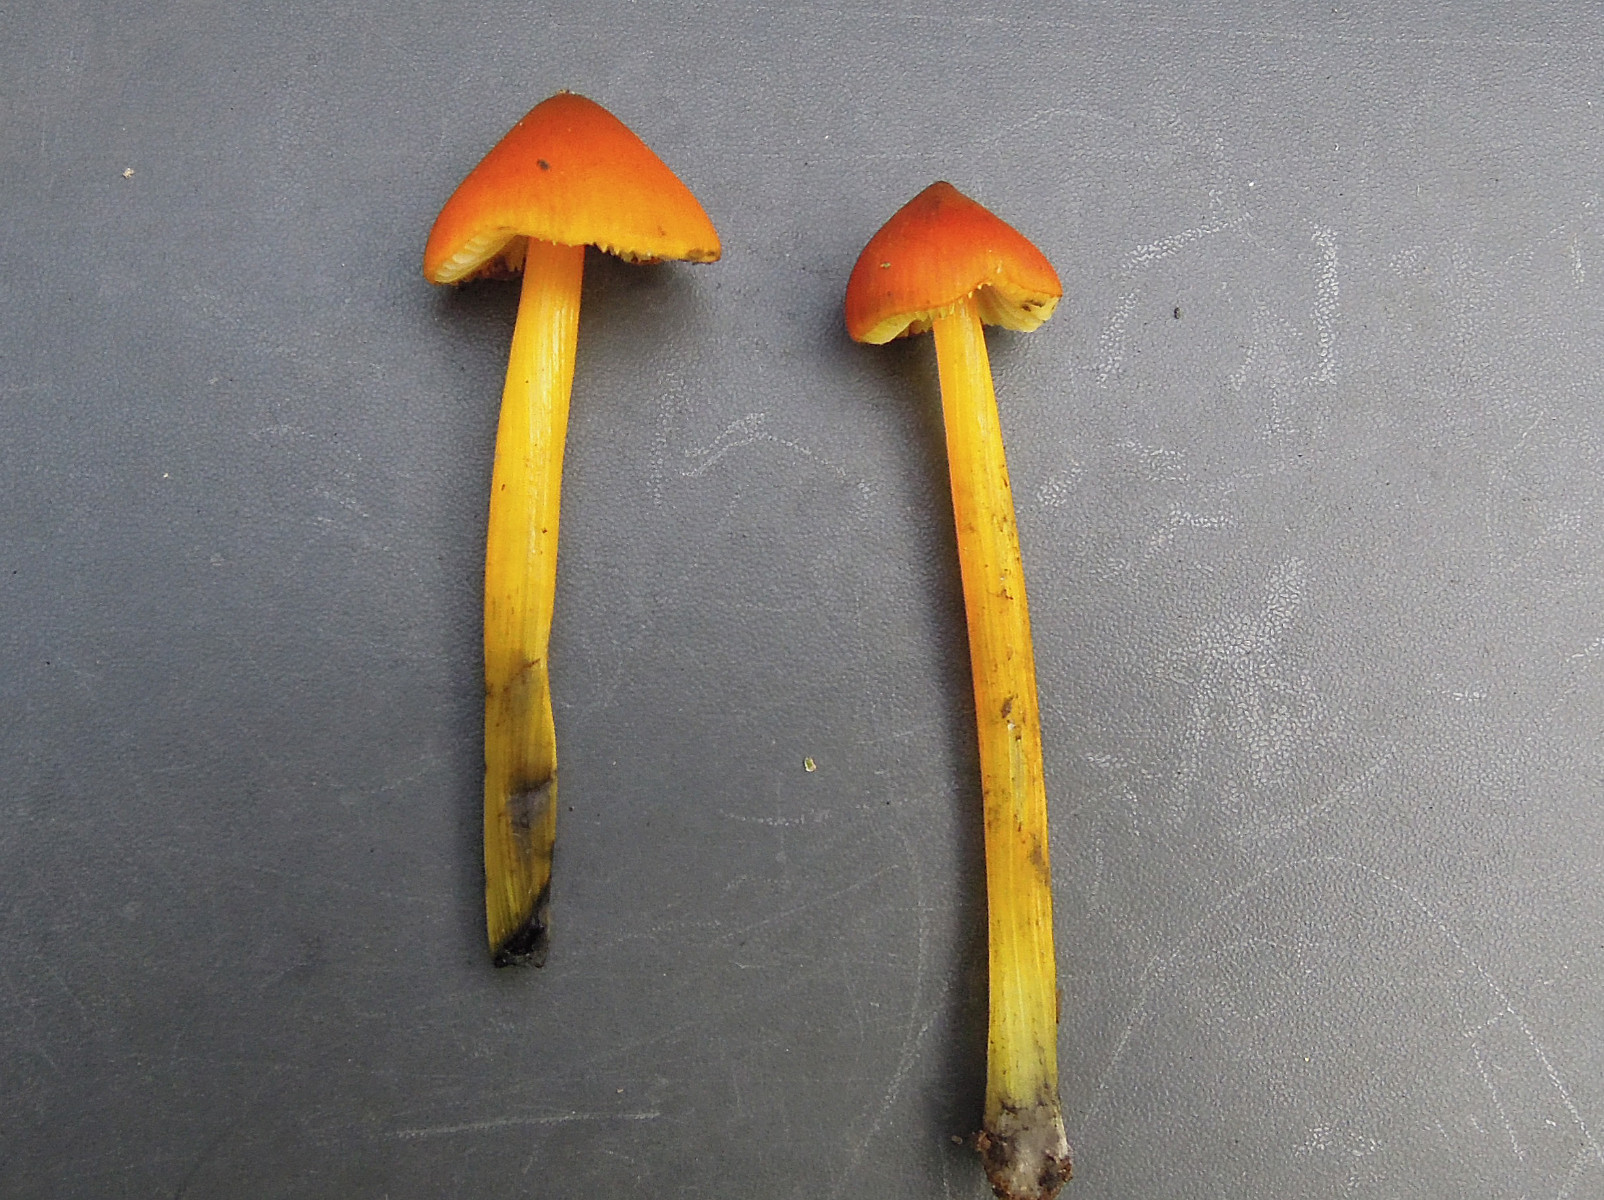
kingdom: Fungi
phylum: Basidiomycota
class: Agaricomycetes
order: Agaricales
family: Hygrophoraceae
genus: Hygrocybe
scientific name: Hygrocybe conica
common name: kegle-vokshat
